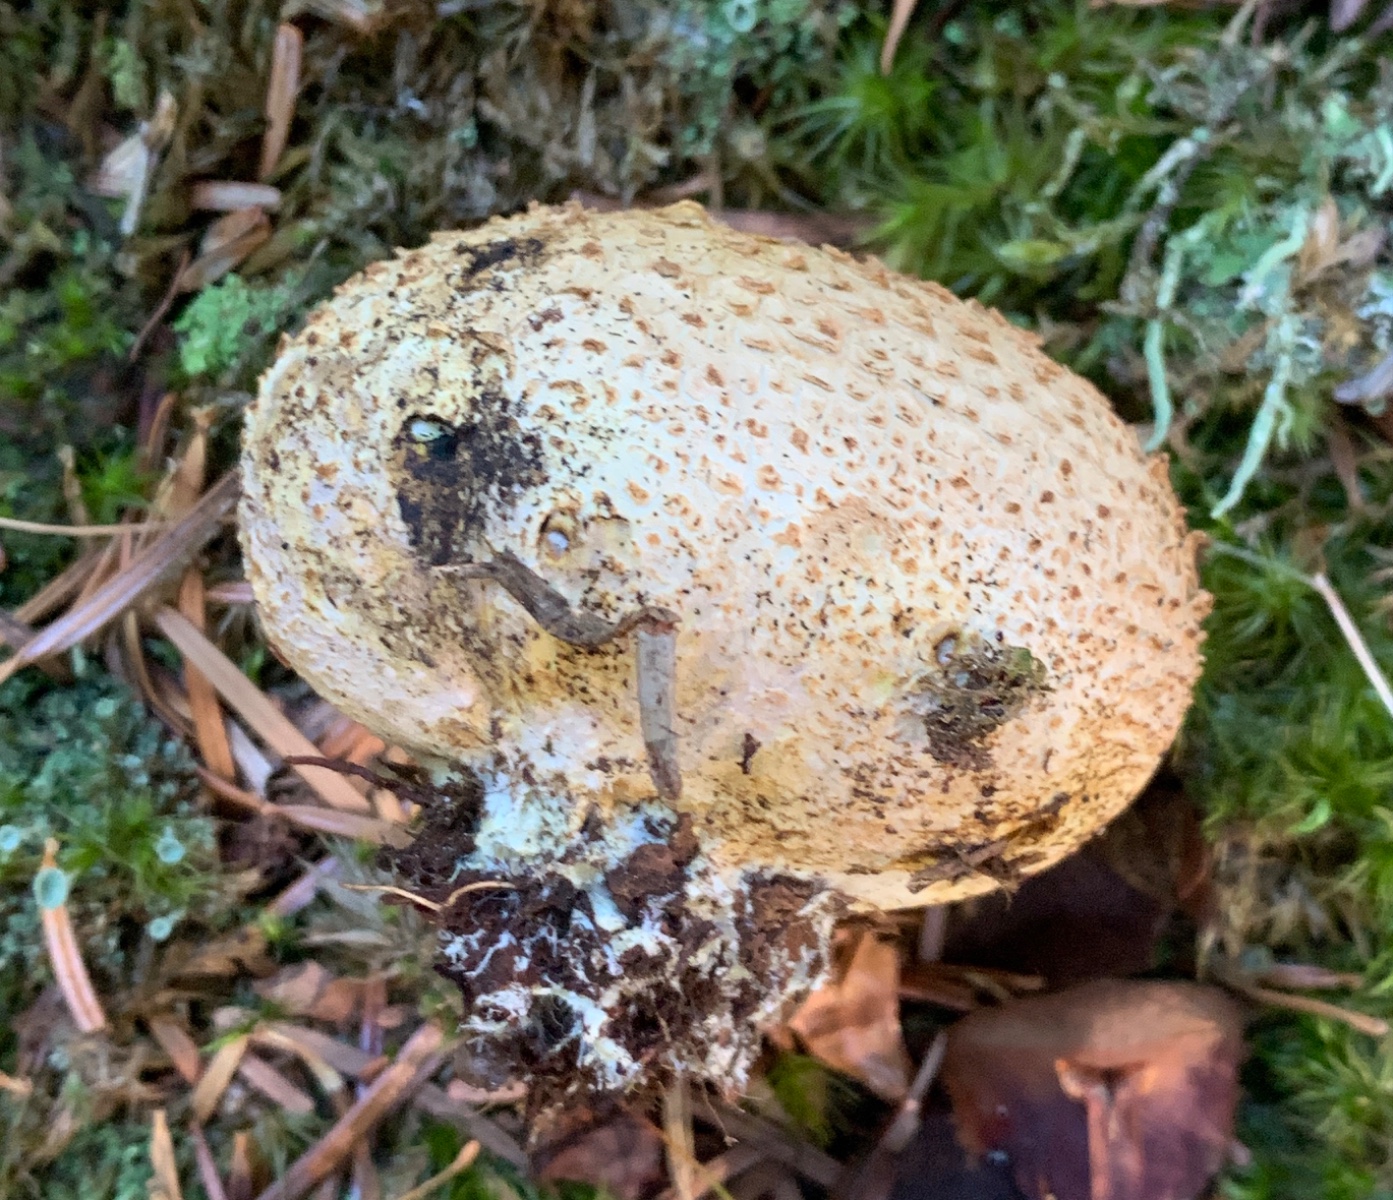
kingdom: Fungi
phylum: Basidiomycota
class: Agaricomycetes
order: Boletales
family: Sclerodermataceae
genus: Scleroderma
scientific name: Scleroderma citrinum
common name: almindelig bruskbold
